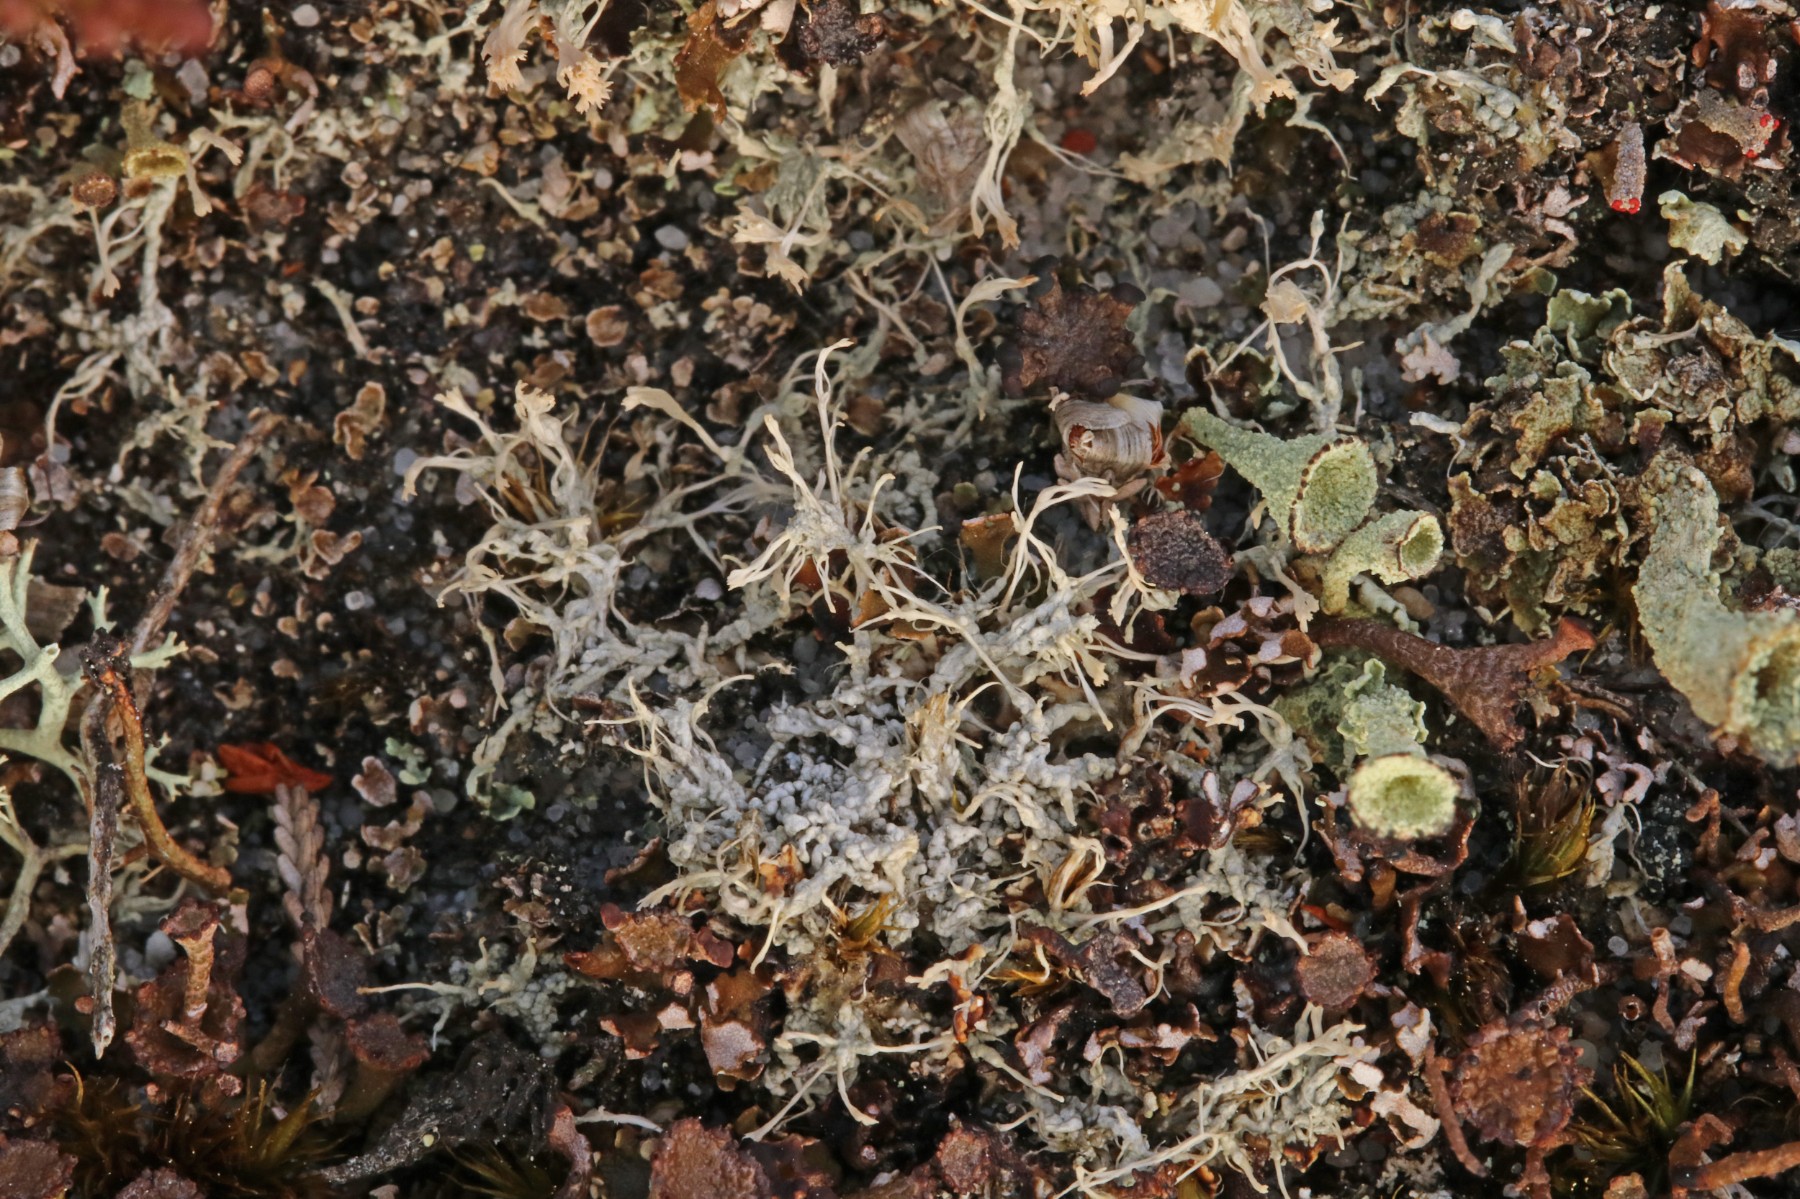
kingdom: Fungi
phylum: Ascomycota
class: Lecanoromycetes
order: Pertusariales
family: Ochrolechiaceae
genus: Ochrolechia
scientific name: Ochrolechia frigida
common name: fjeld-blegskivelav
